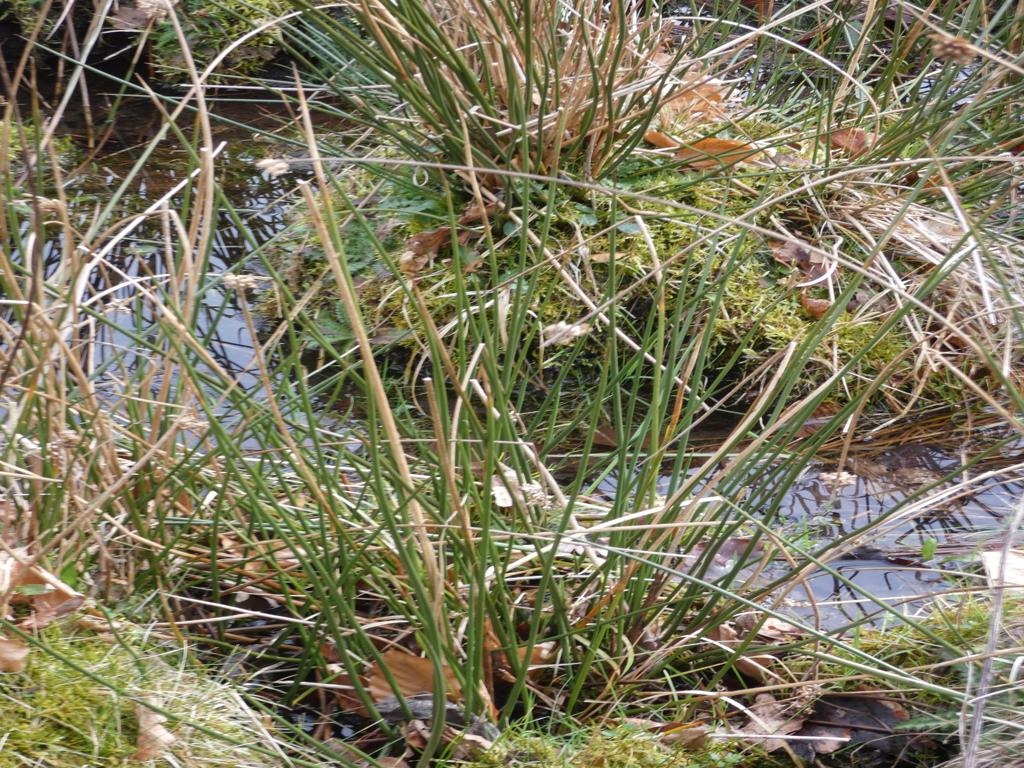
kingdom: Plantae
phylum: Tracheophyta
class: Liliopsida
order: Poales
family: Juncaceae
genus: Juncus
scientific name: Juncus effusus
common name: Lyse-siv
